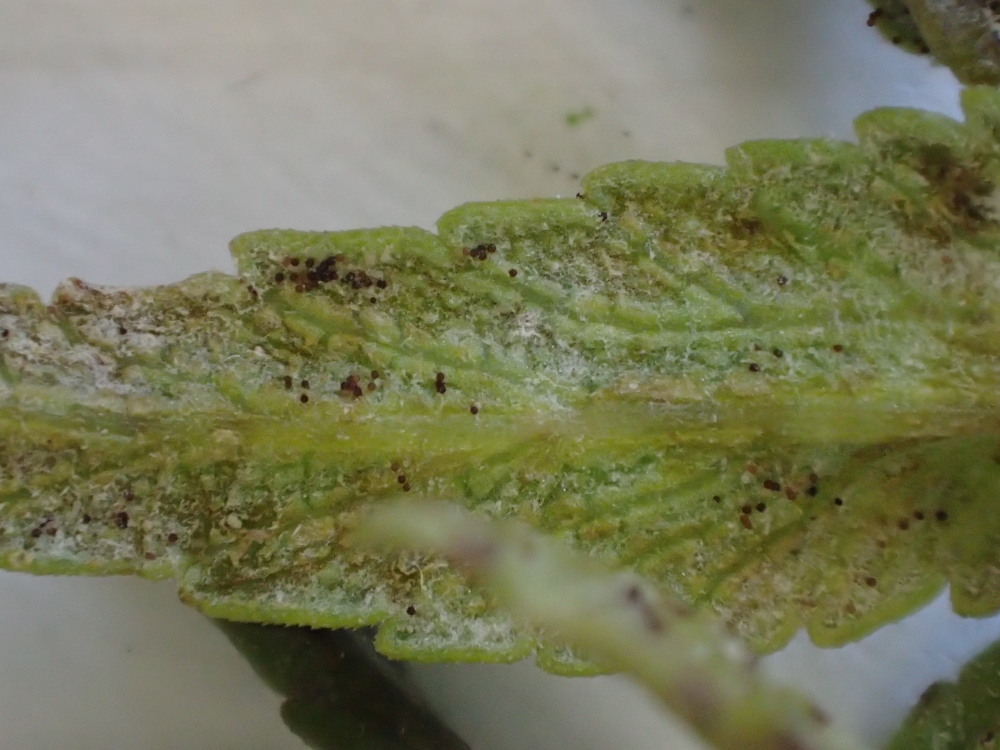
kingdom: Fungi
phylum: Ascomycota
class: Leotiomycetes
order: Helotiales
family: Erysiphaceae
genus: Podosphaera
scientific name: Podosphaera phtheirospermi
